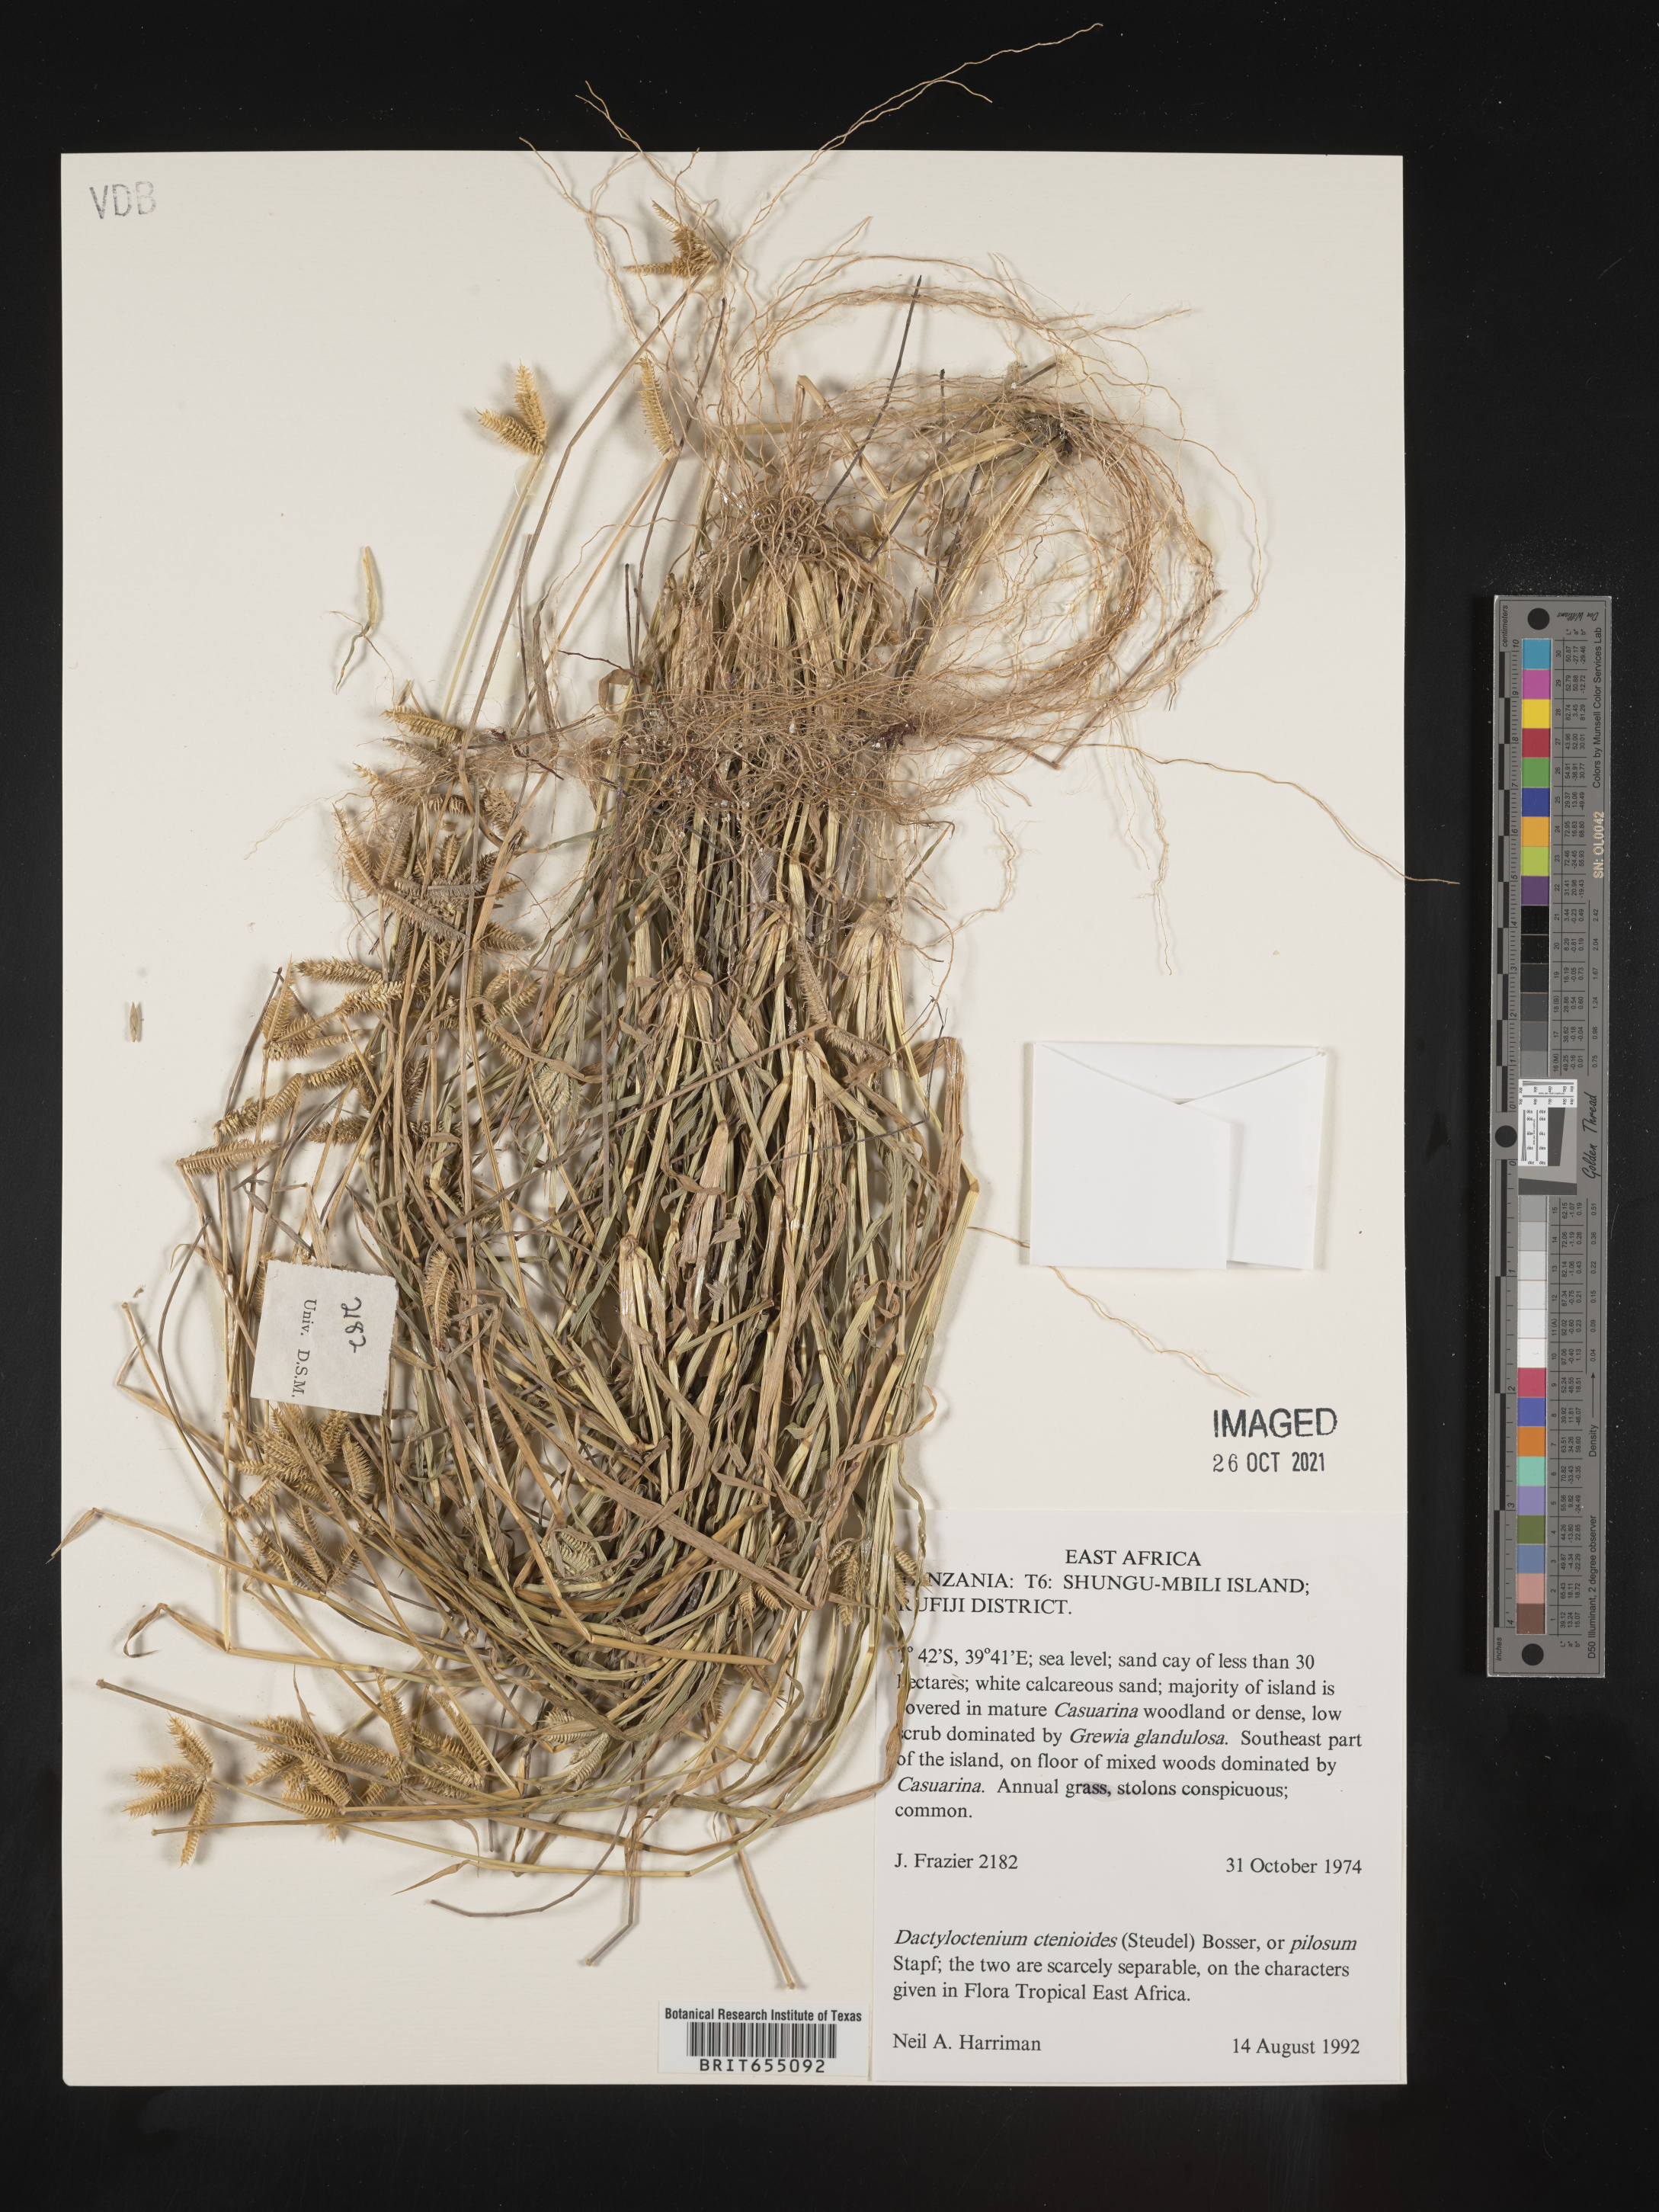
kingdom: Plantae
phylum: Tracheophyta
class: Liliopsida
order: Poales
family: Poaceae
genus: Dactyloctenium
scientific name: Dactyloctenium
